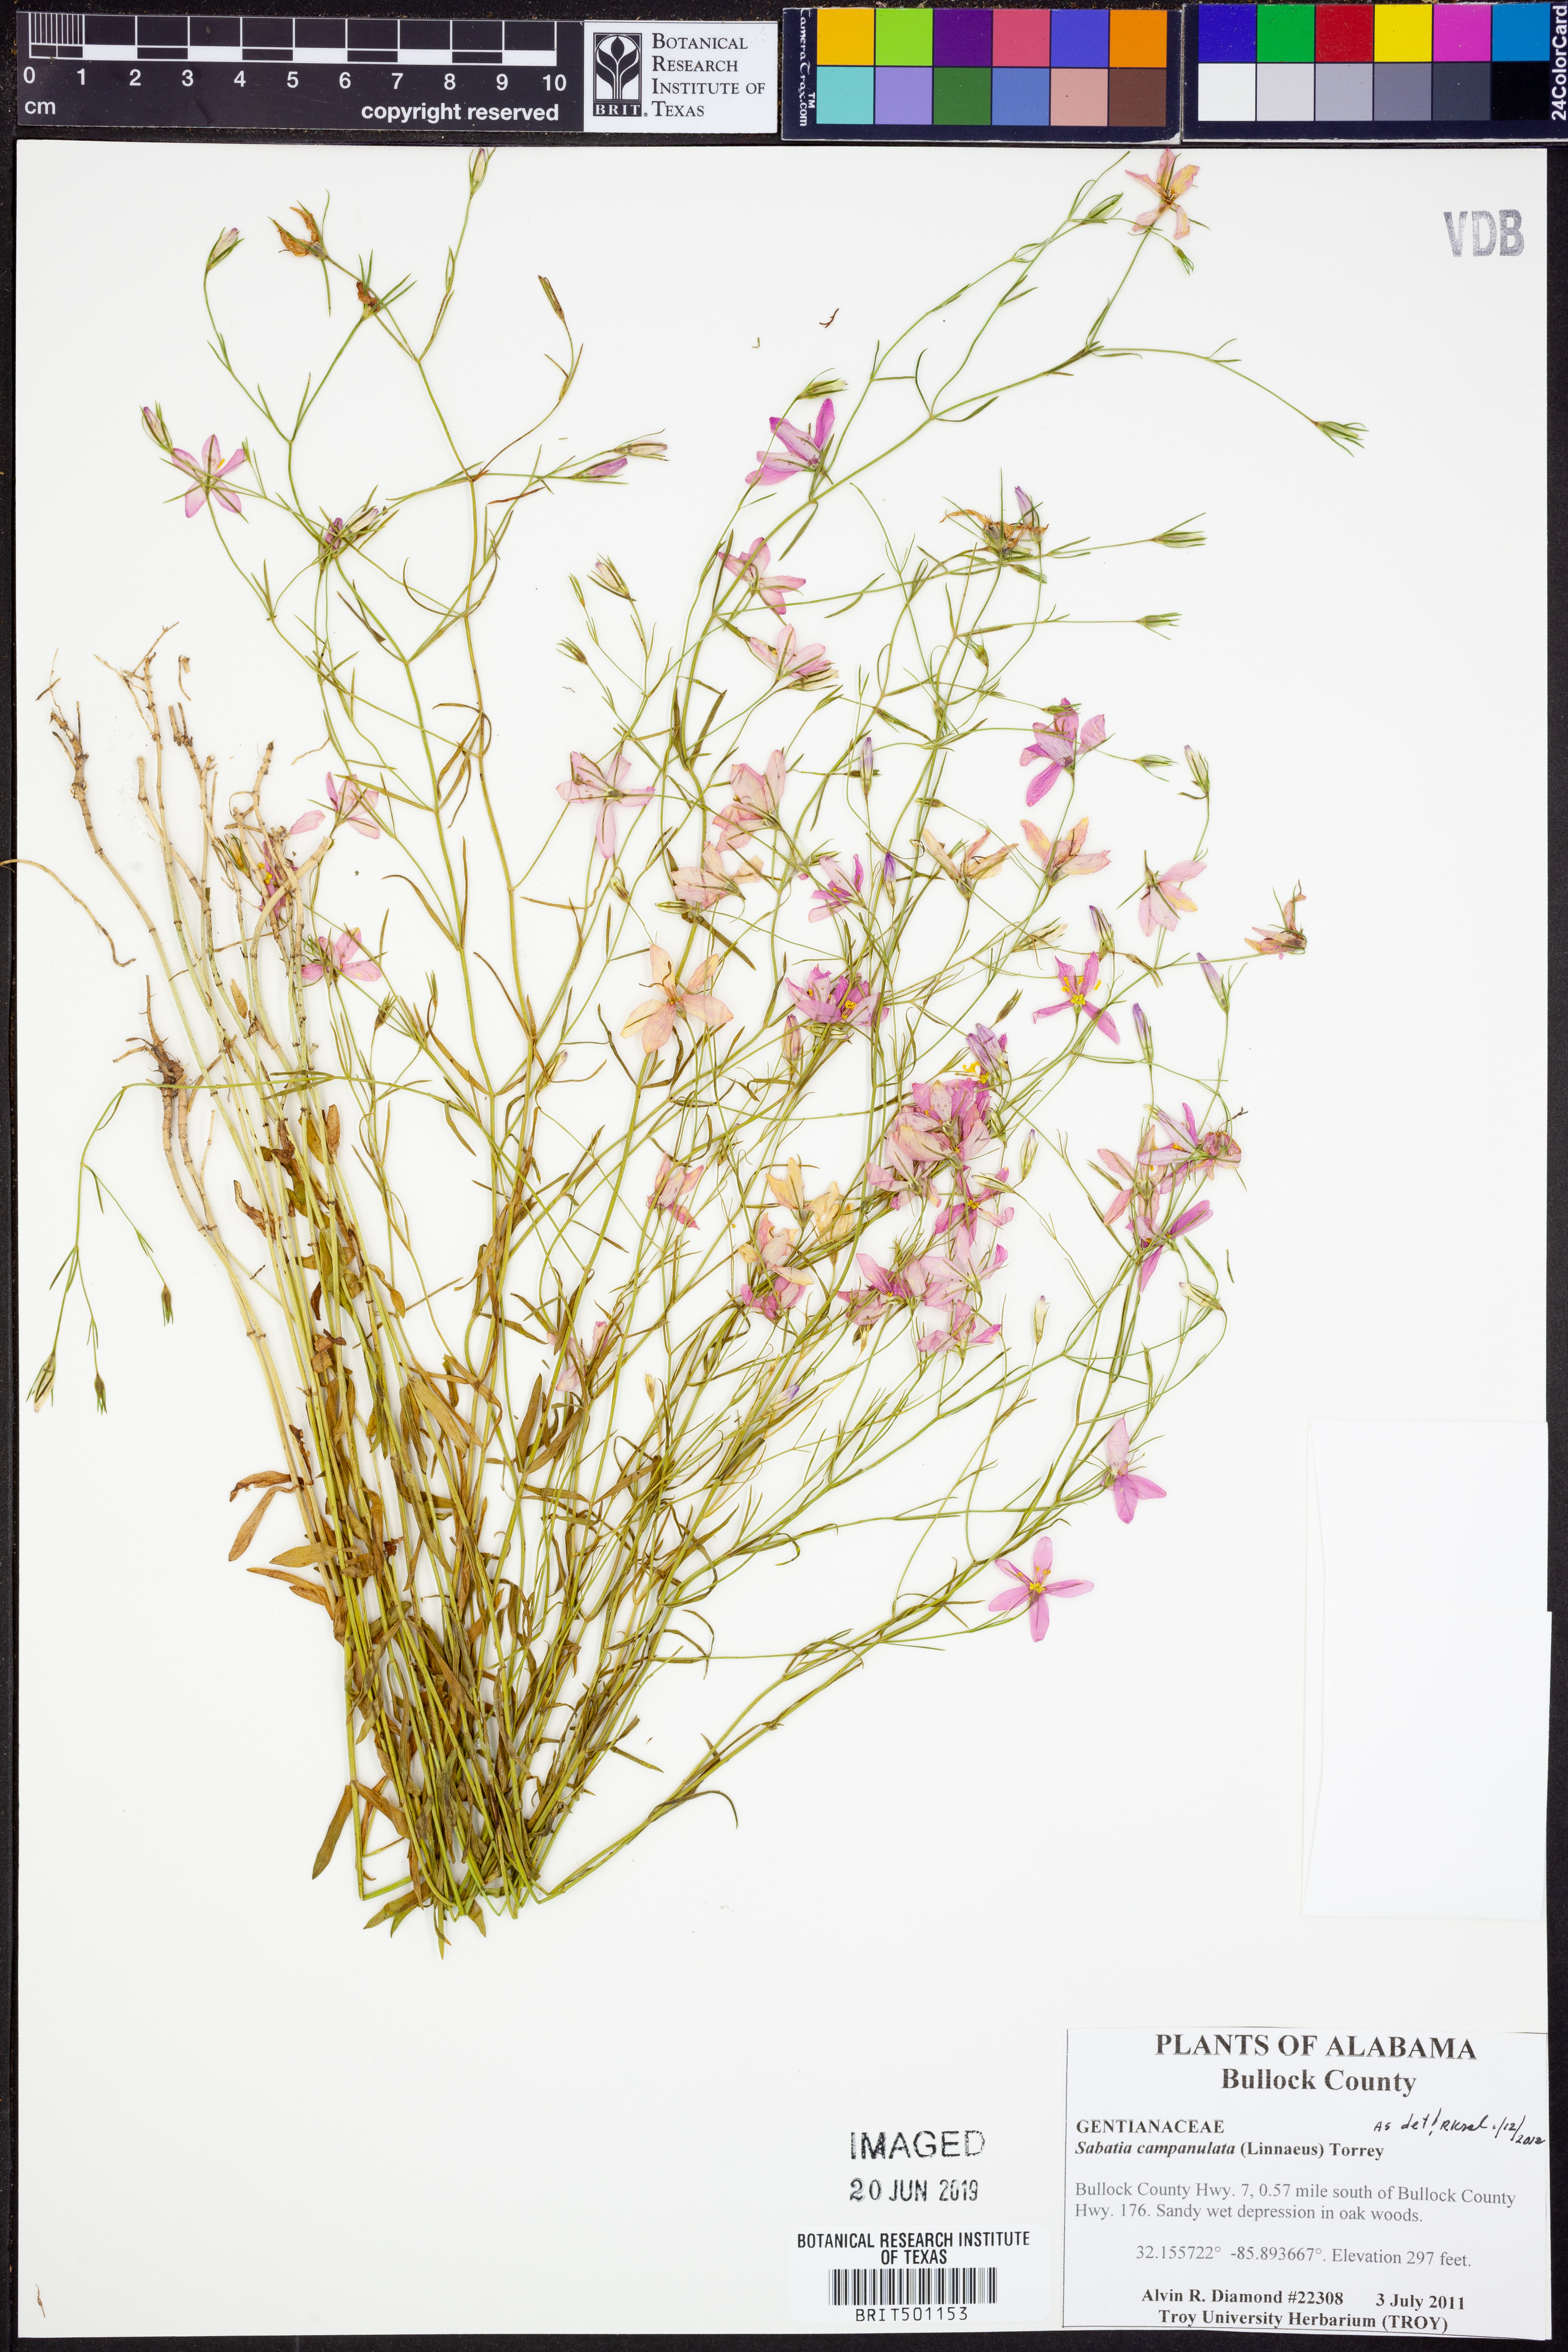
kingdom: Plantae
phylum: Tracheophyta
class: Magnoliopsida
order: Gentianales
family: Gentianaceae
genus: Sabatia
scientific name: Sabatia campanulata
